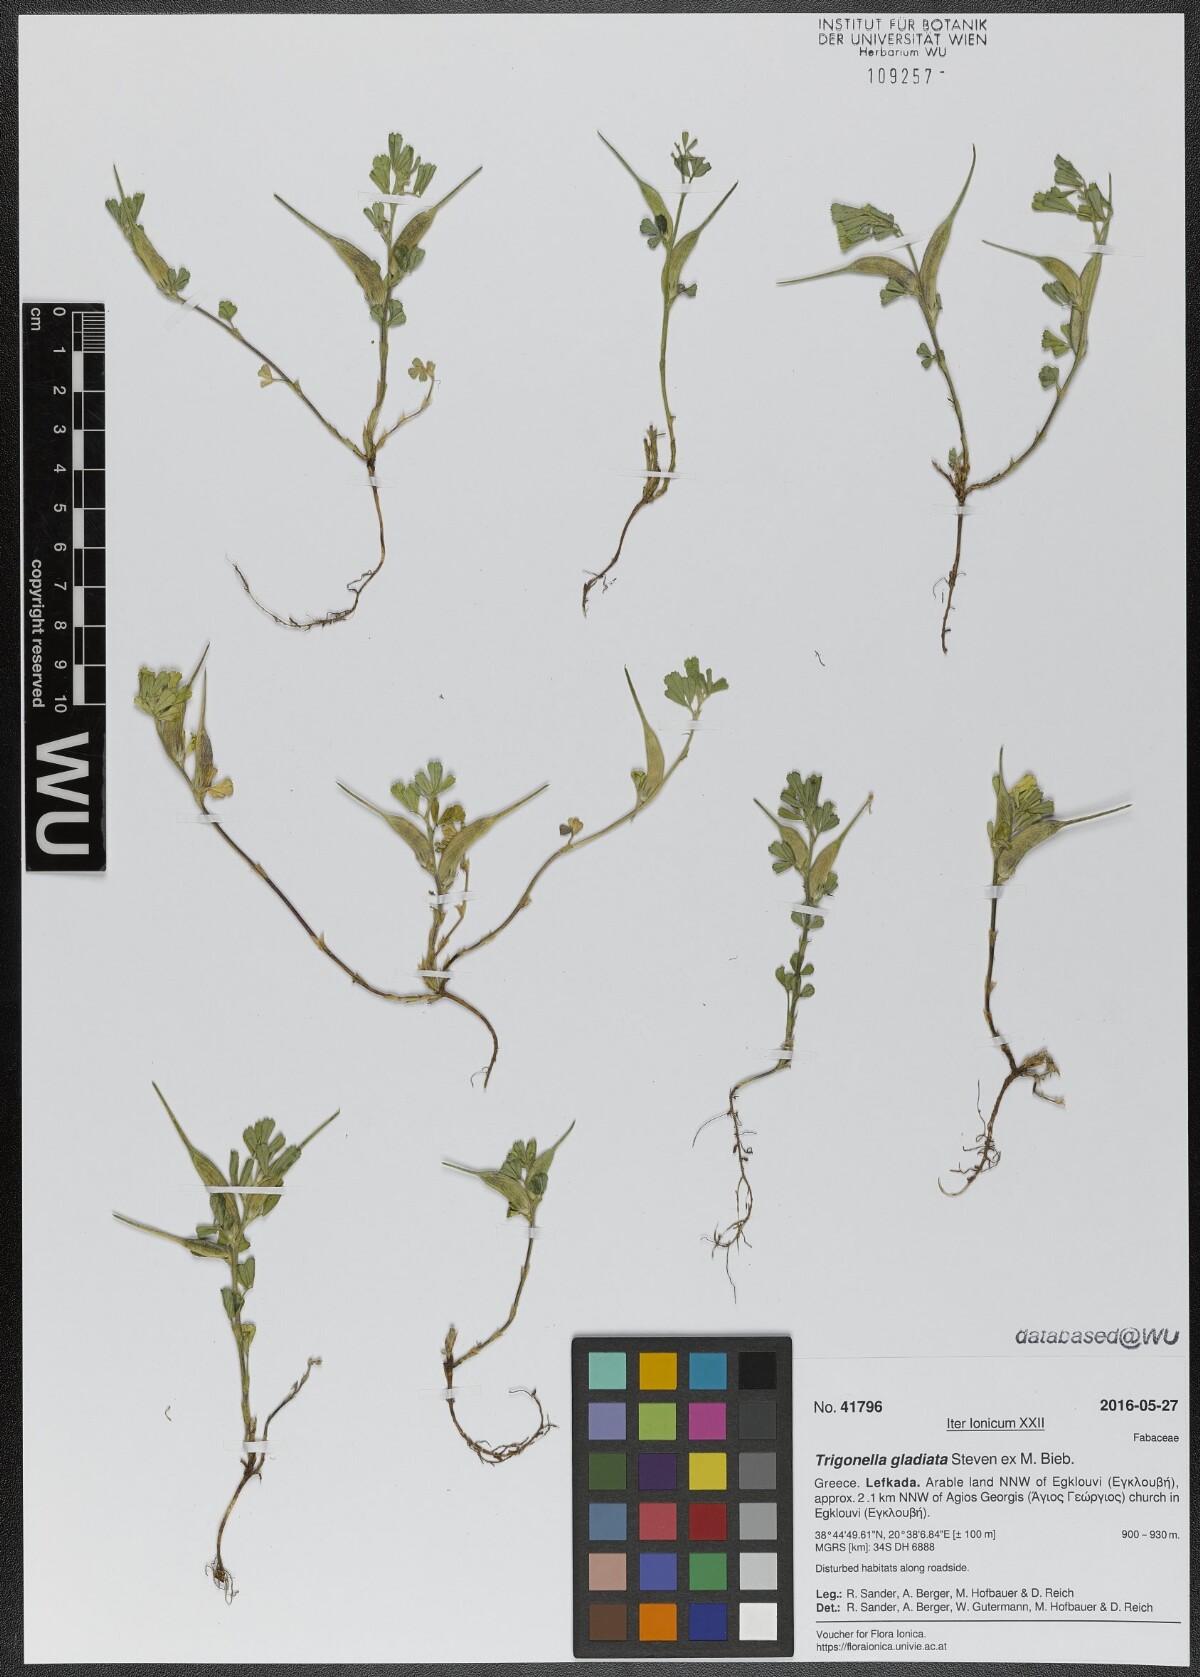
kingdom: Plantae
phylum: Tracheophyta
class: Magnoliopsida
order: Fabales
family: Fabaceae
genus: Trigonella
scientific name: Trigonella gladiata
